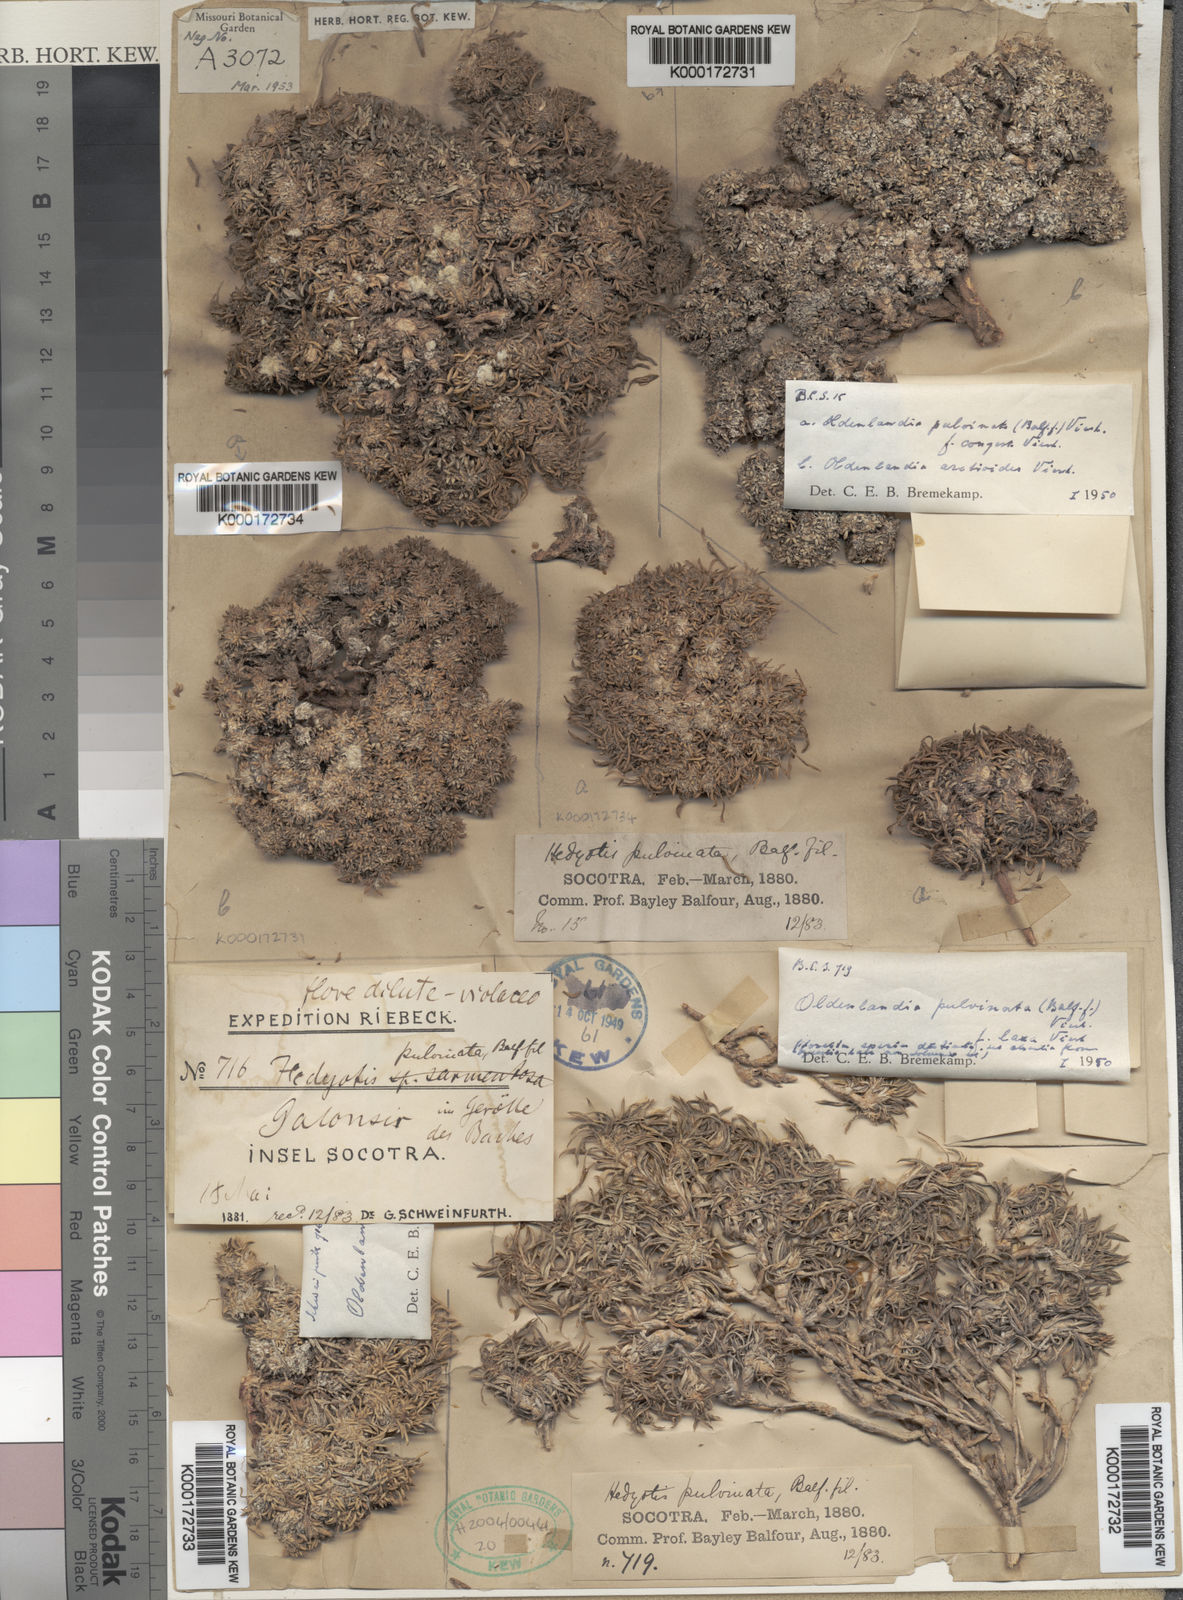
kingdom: Plantae
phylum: Tracheophyta
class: Magnoliopsida
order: Gentianales
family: Rubiaceae
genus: Oldenlandia
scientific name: Oldenlandia pulvinata
